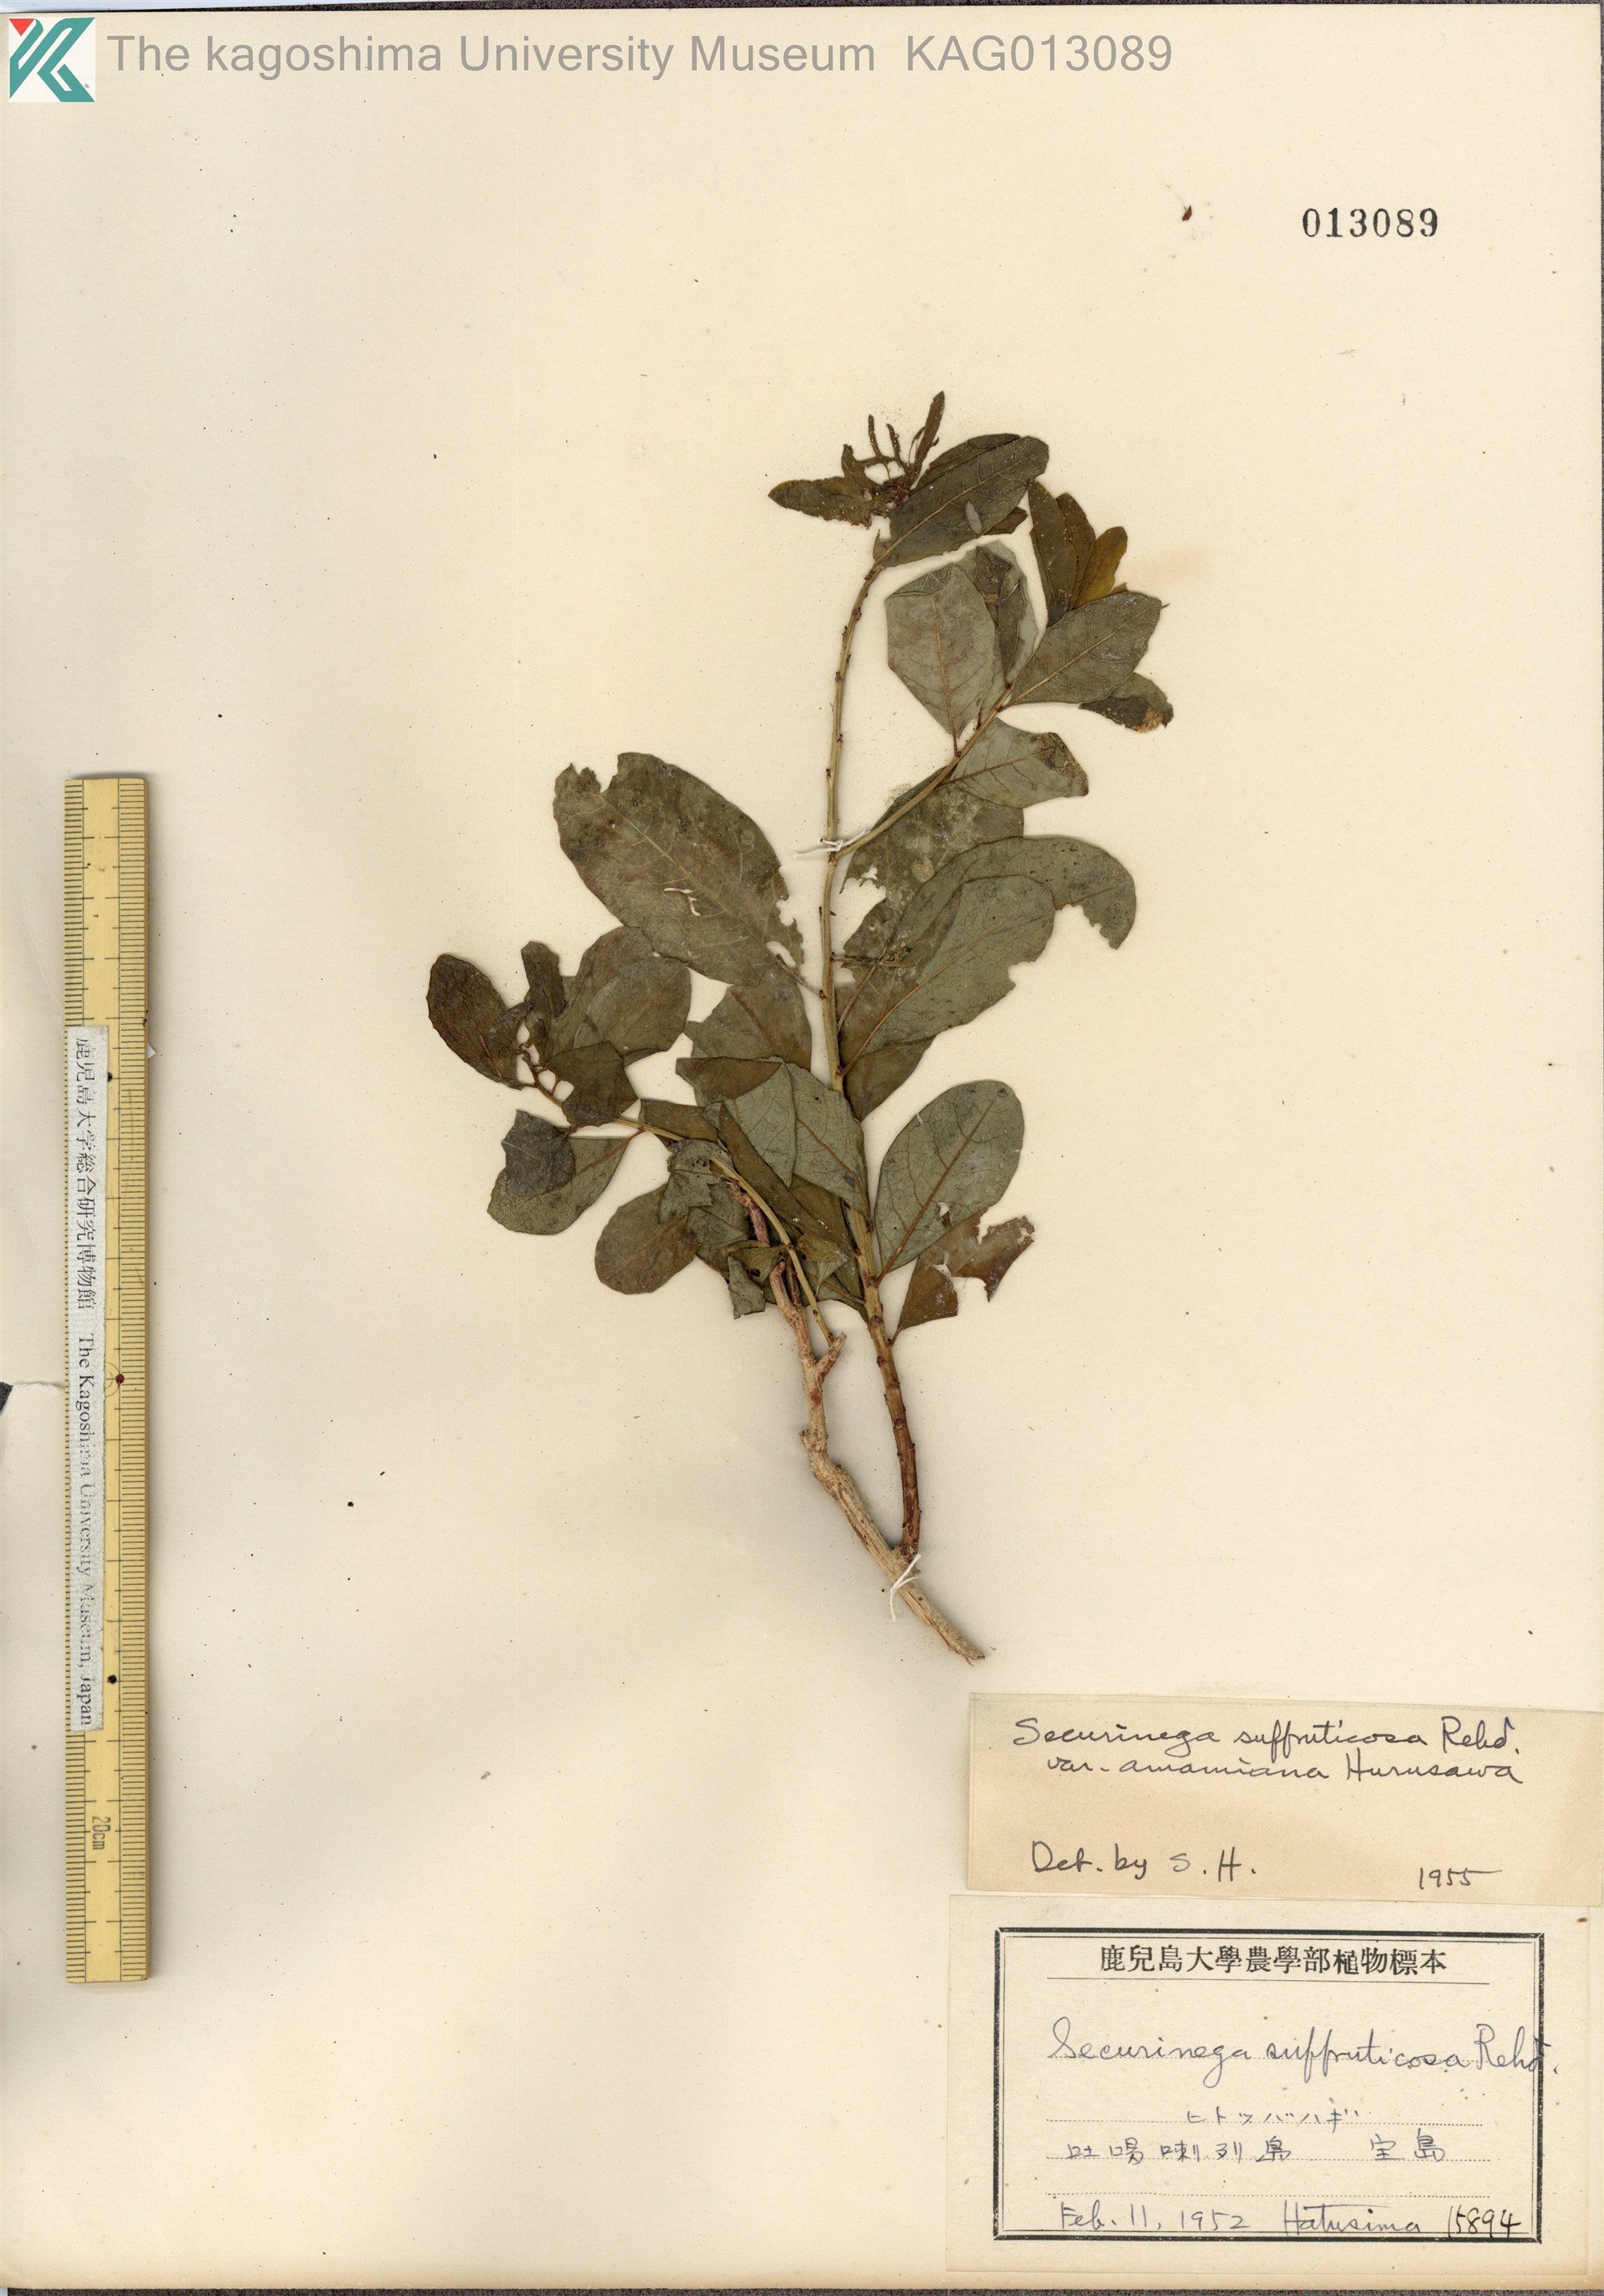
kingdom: Plantae
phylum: Tracheophyta
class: Magnoliopsida
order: Malpighiales
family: Phyllanthaceae
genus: Flueggea
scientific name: Flueggea suffruticosa
